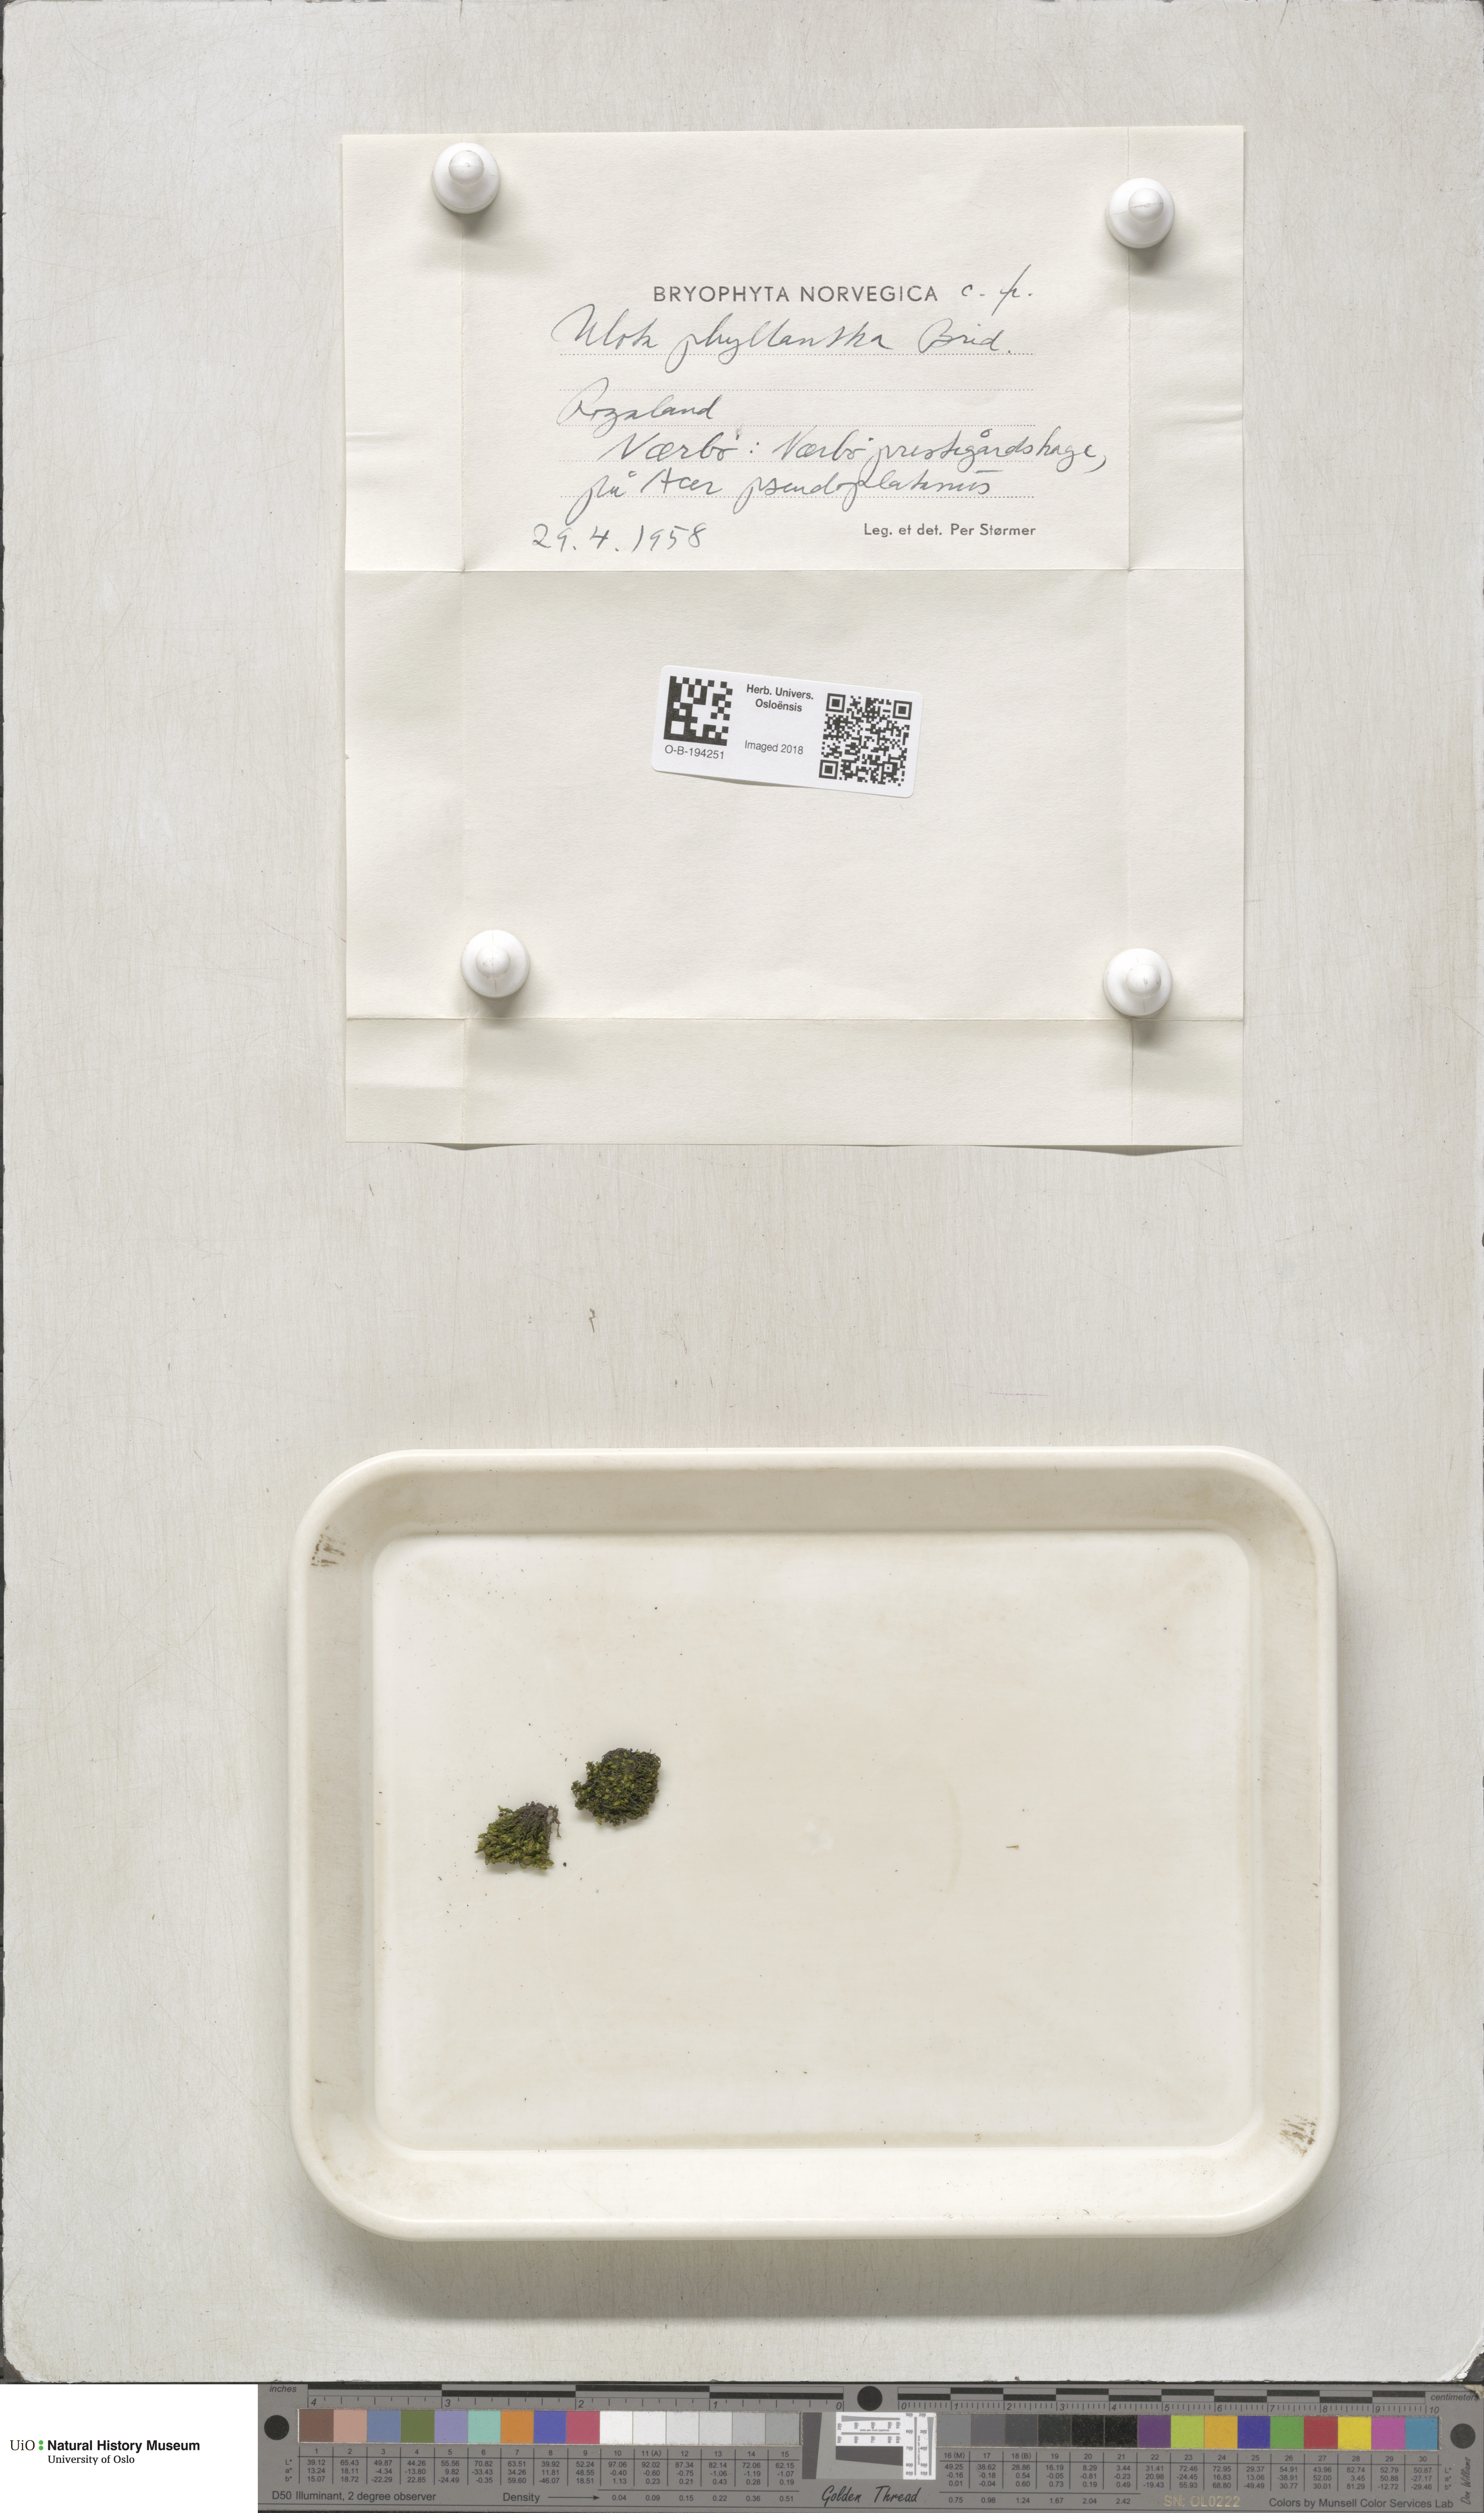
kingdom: Plantae
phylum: Bryophyta
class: Bryopsida
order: Orthotrichales
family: Orthotrichaceae
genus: Plenogemma
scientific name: Plenogemma phyllantha
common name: Frizzled pincushion
